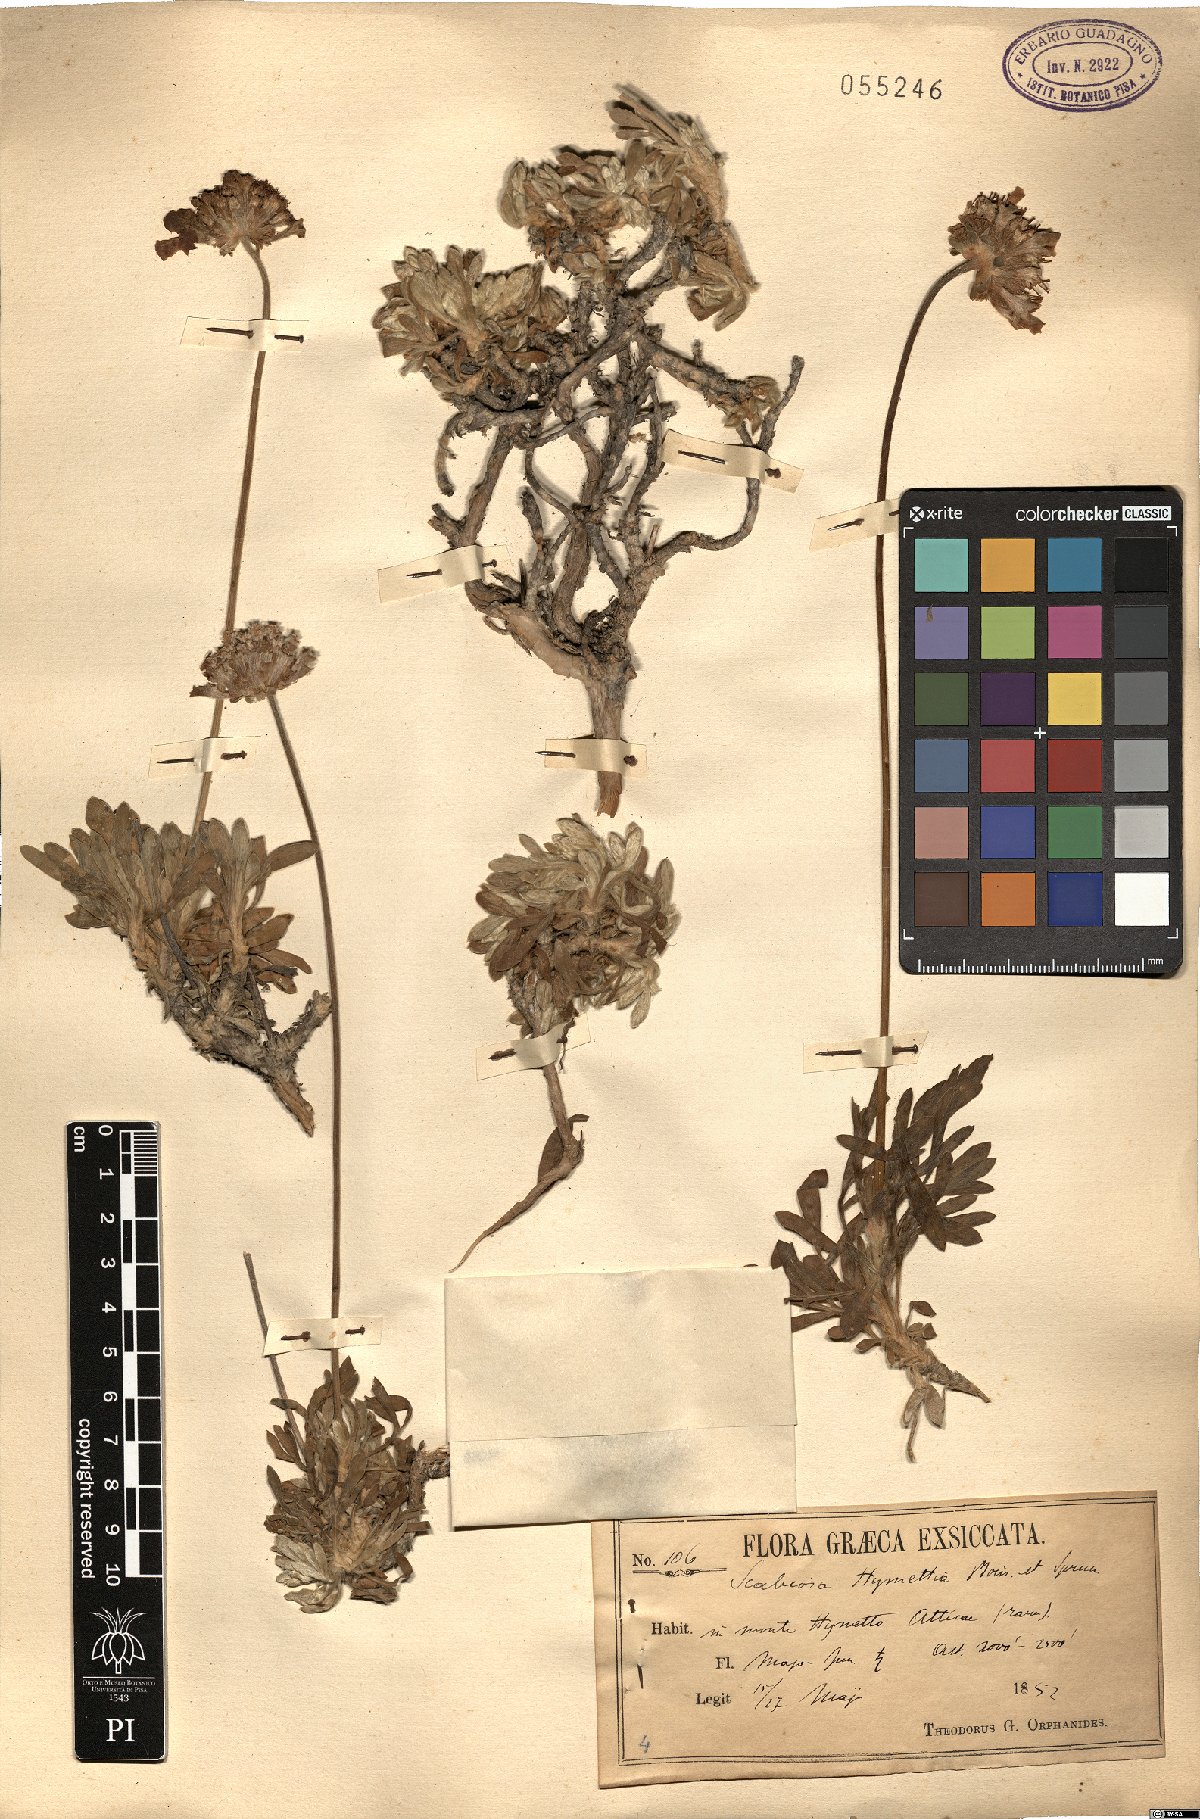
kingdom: Plantae
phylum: Tracheophyta
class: Magnoliopsida
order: Dipsacales
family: Caprifoliaceae
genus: Lomelosia
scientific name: Lomelosia hymettia
